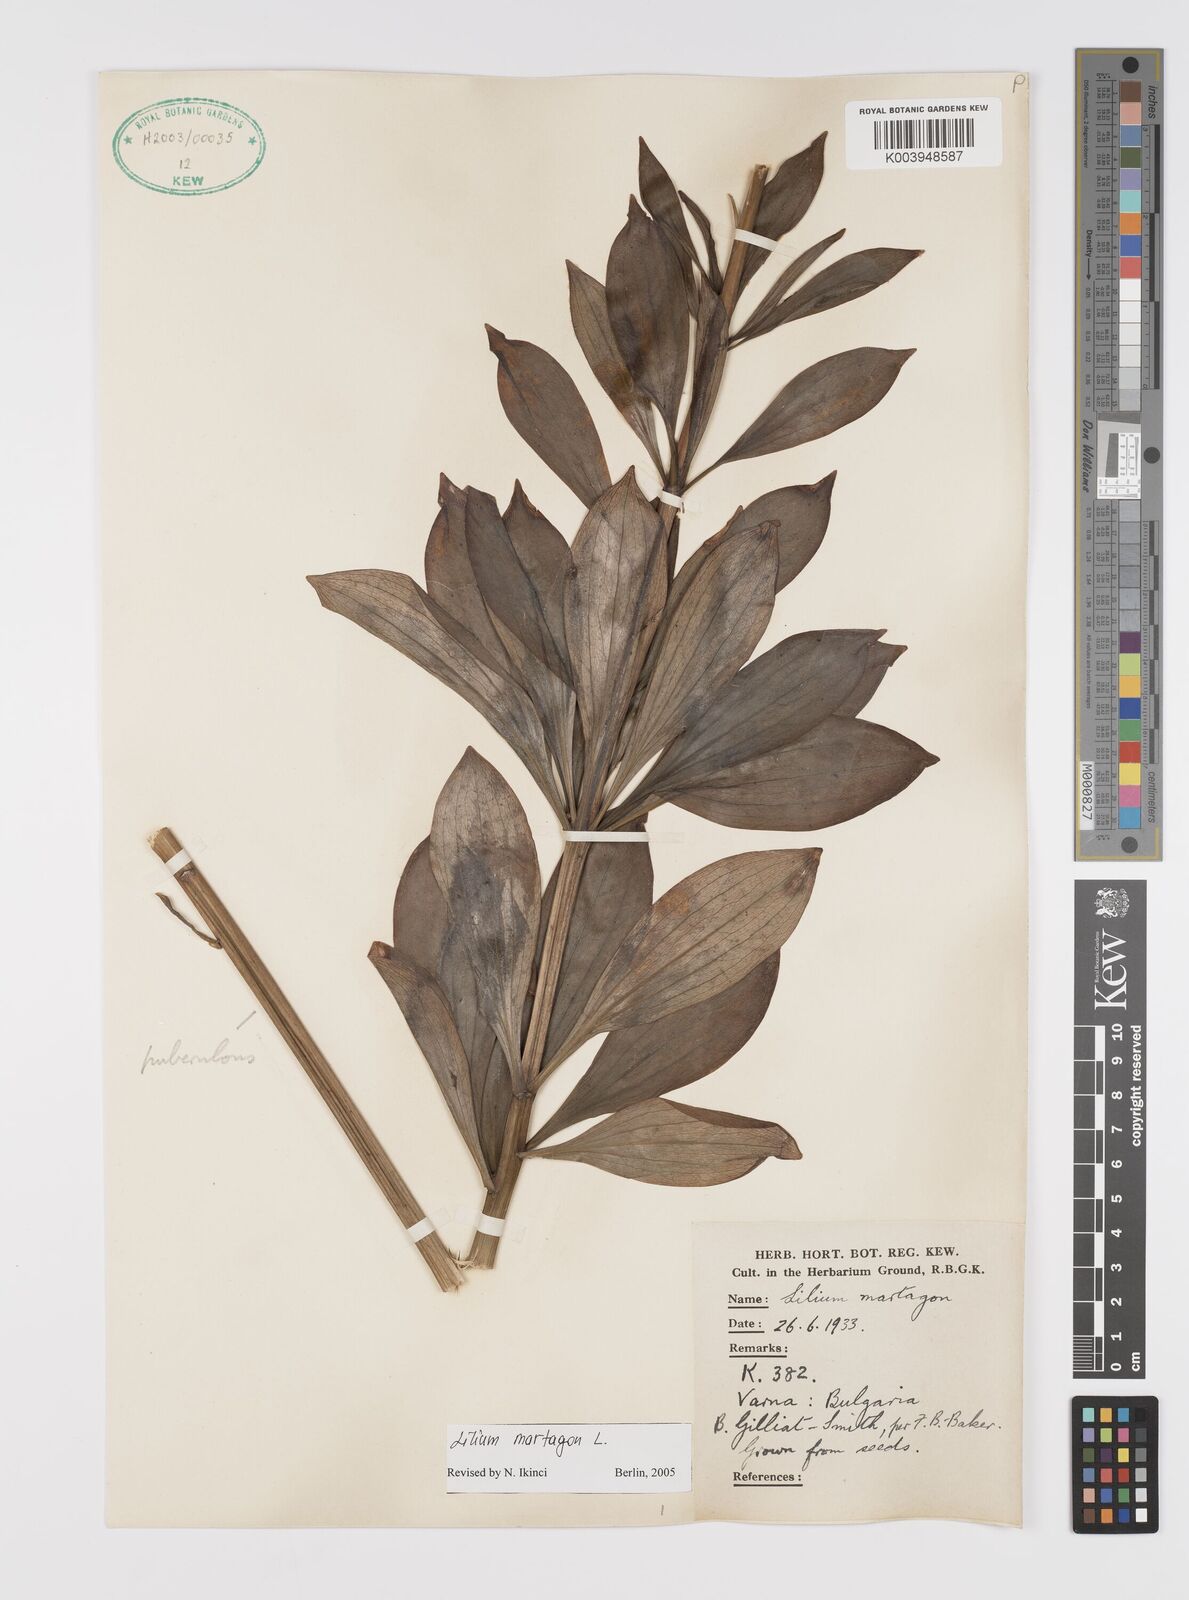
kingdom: Plantae
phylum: Tracheophyta
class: Liliopsida
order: Liliales
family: Liliaceae
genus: Lilium
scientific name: Lilium martagon
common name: Martagon lily
